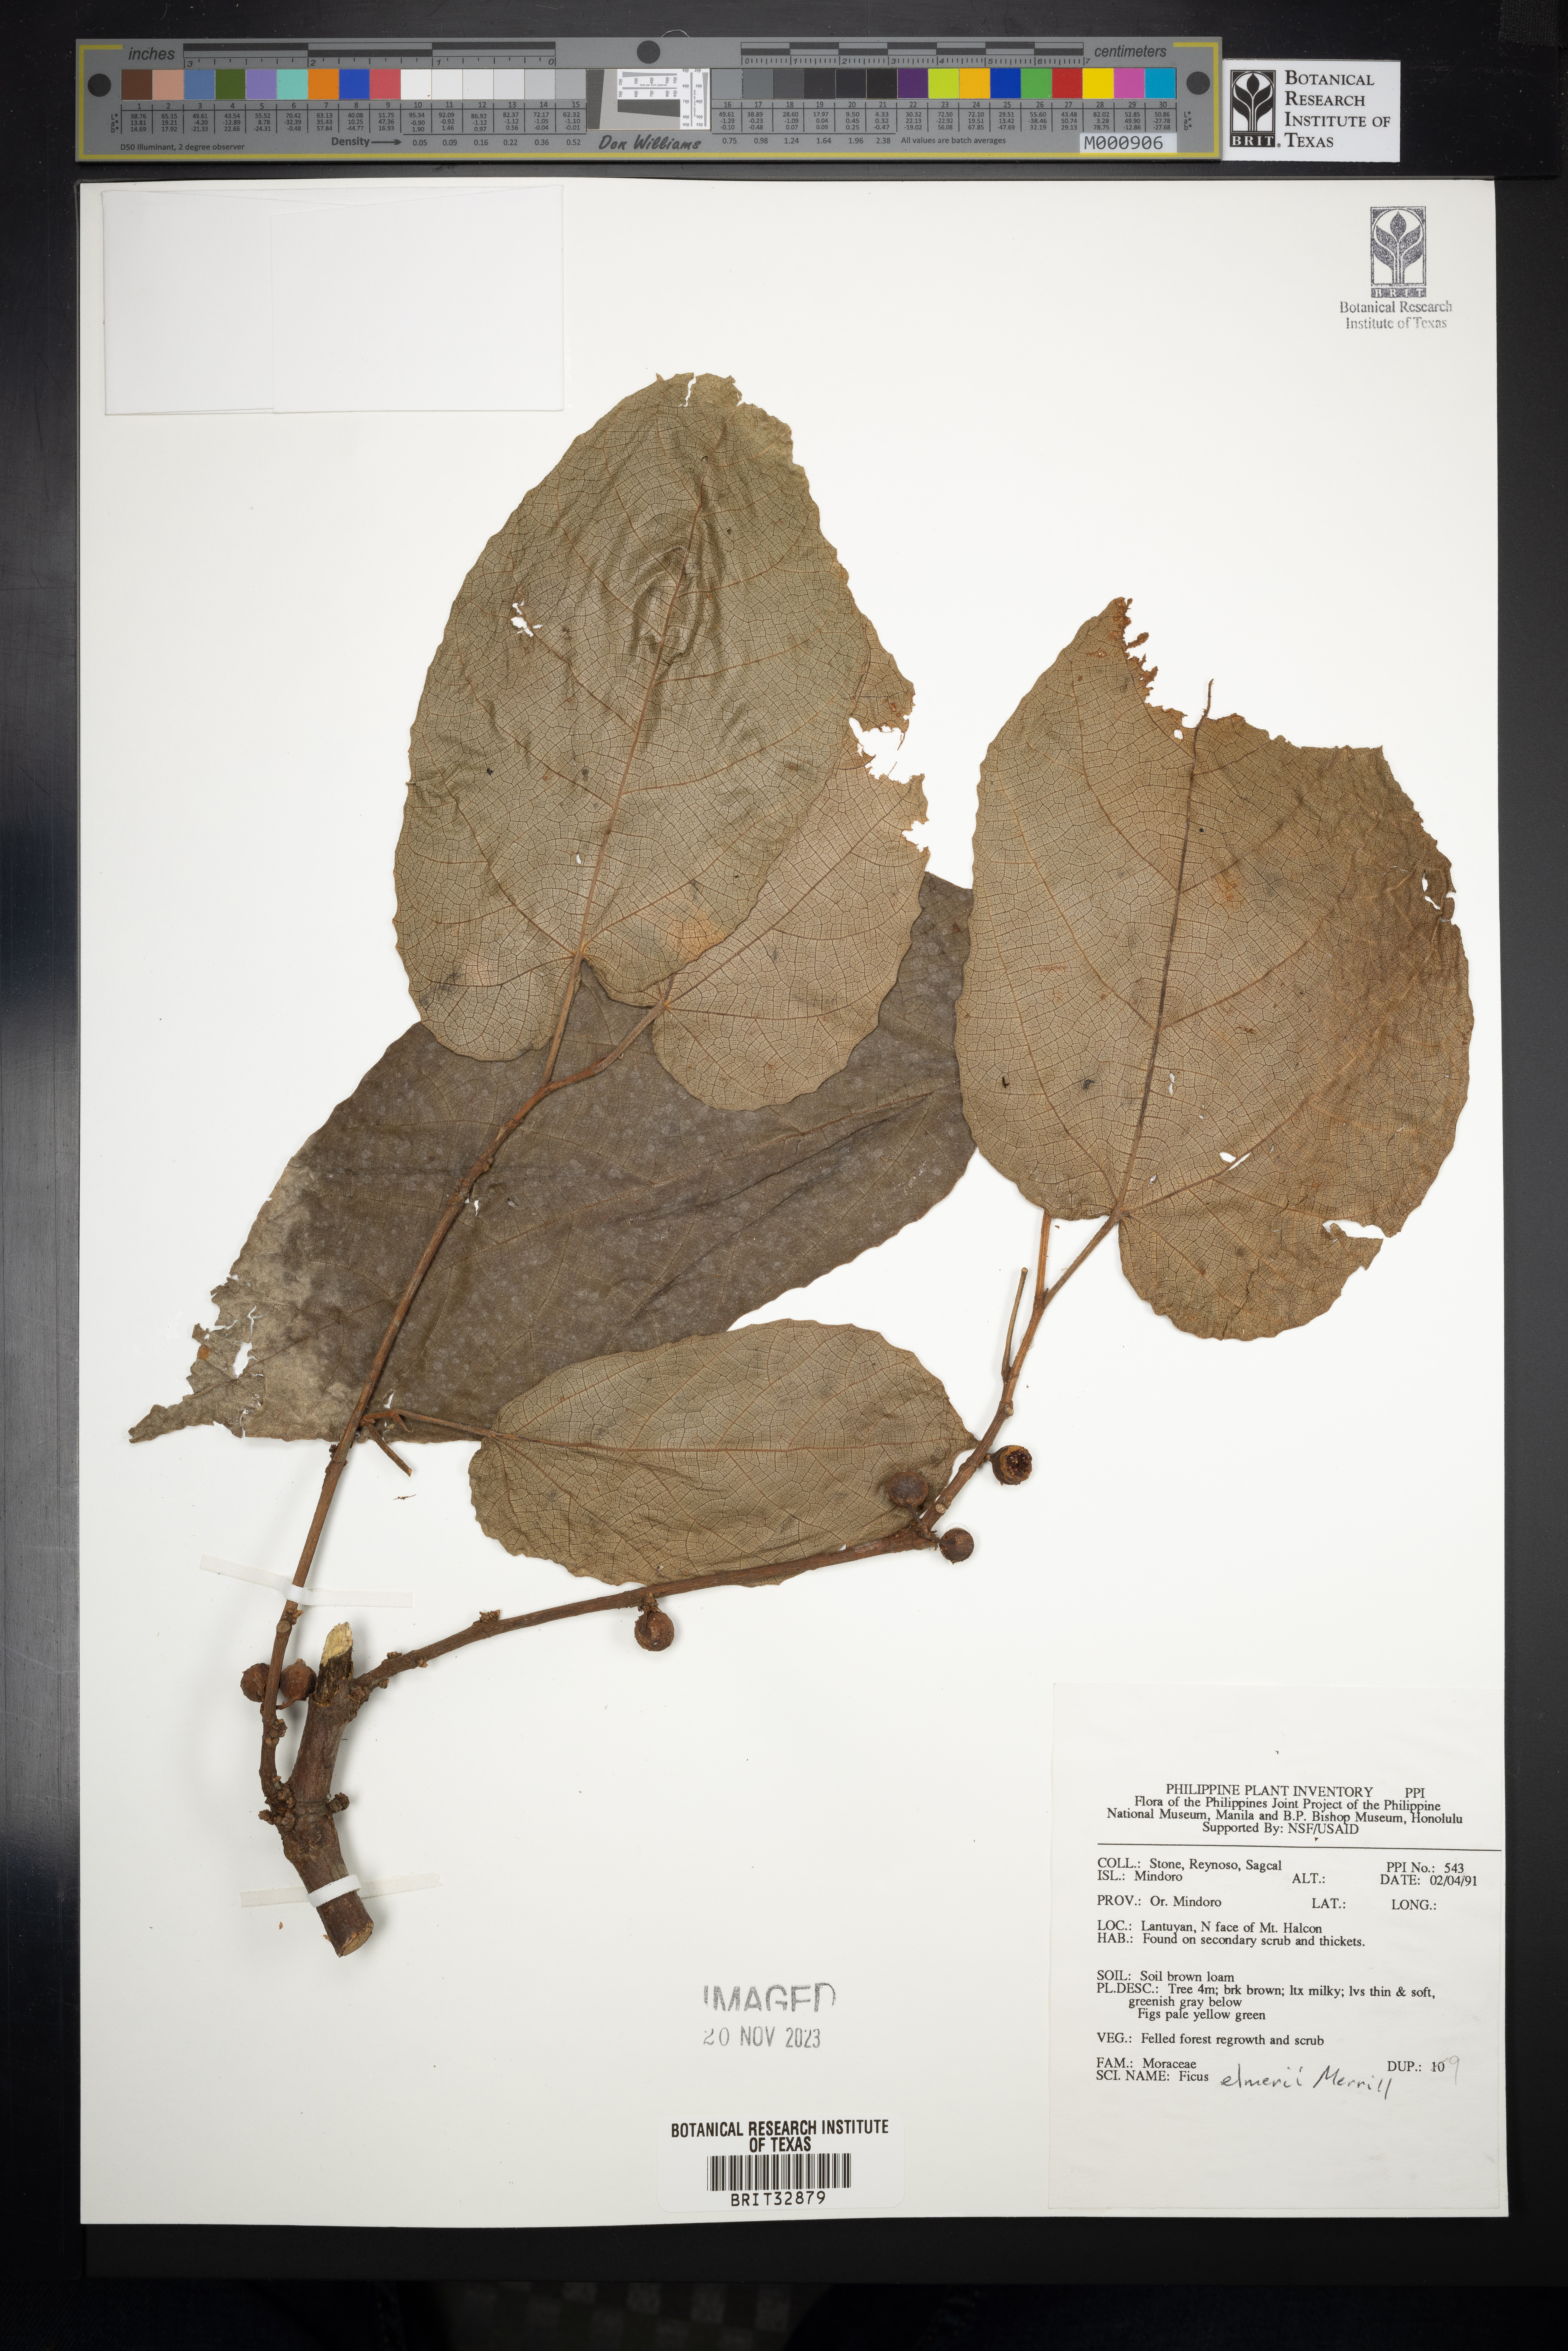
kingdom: Plantae
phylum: Tracheophyta
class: Magnoliopsida
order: Rosales
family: Moraceae
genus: Ficus
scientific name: Ficus elmeri
